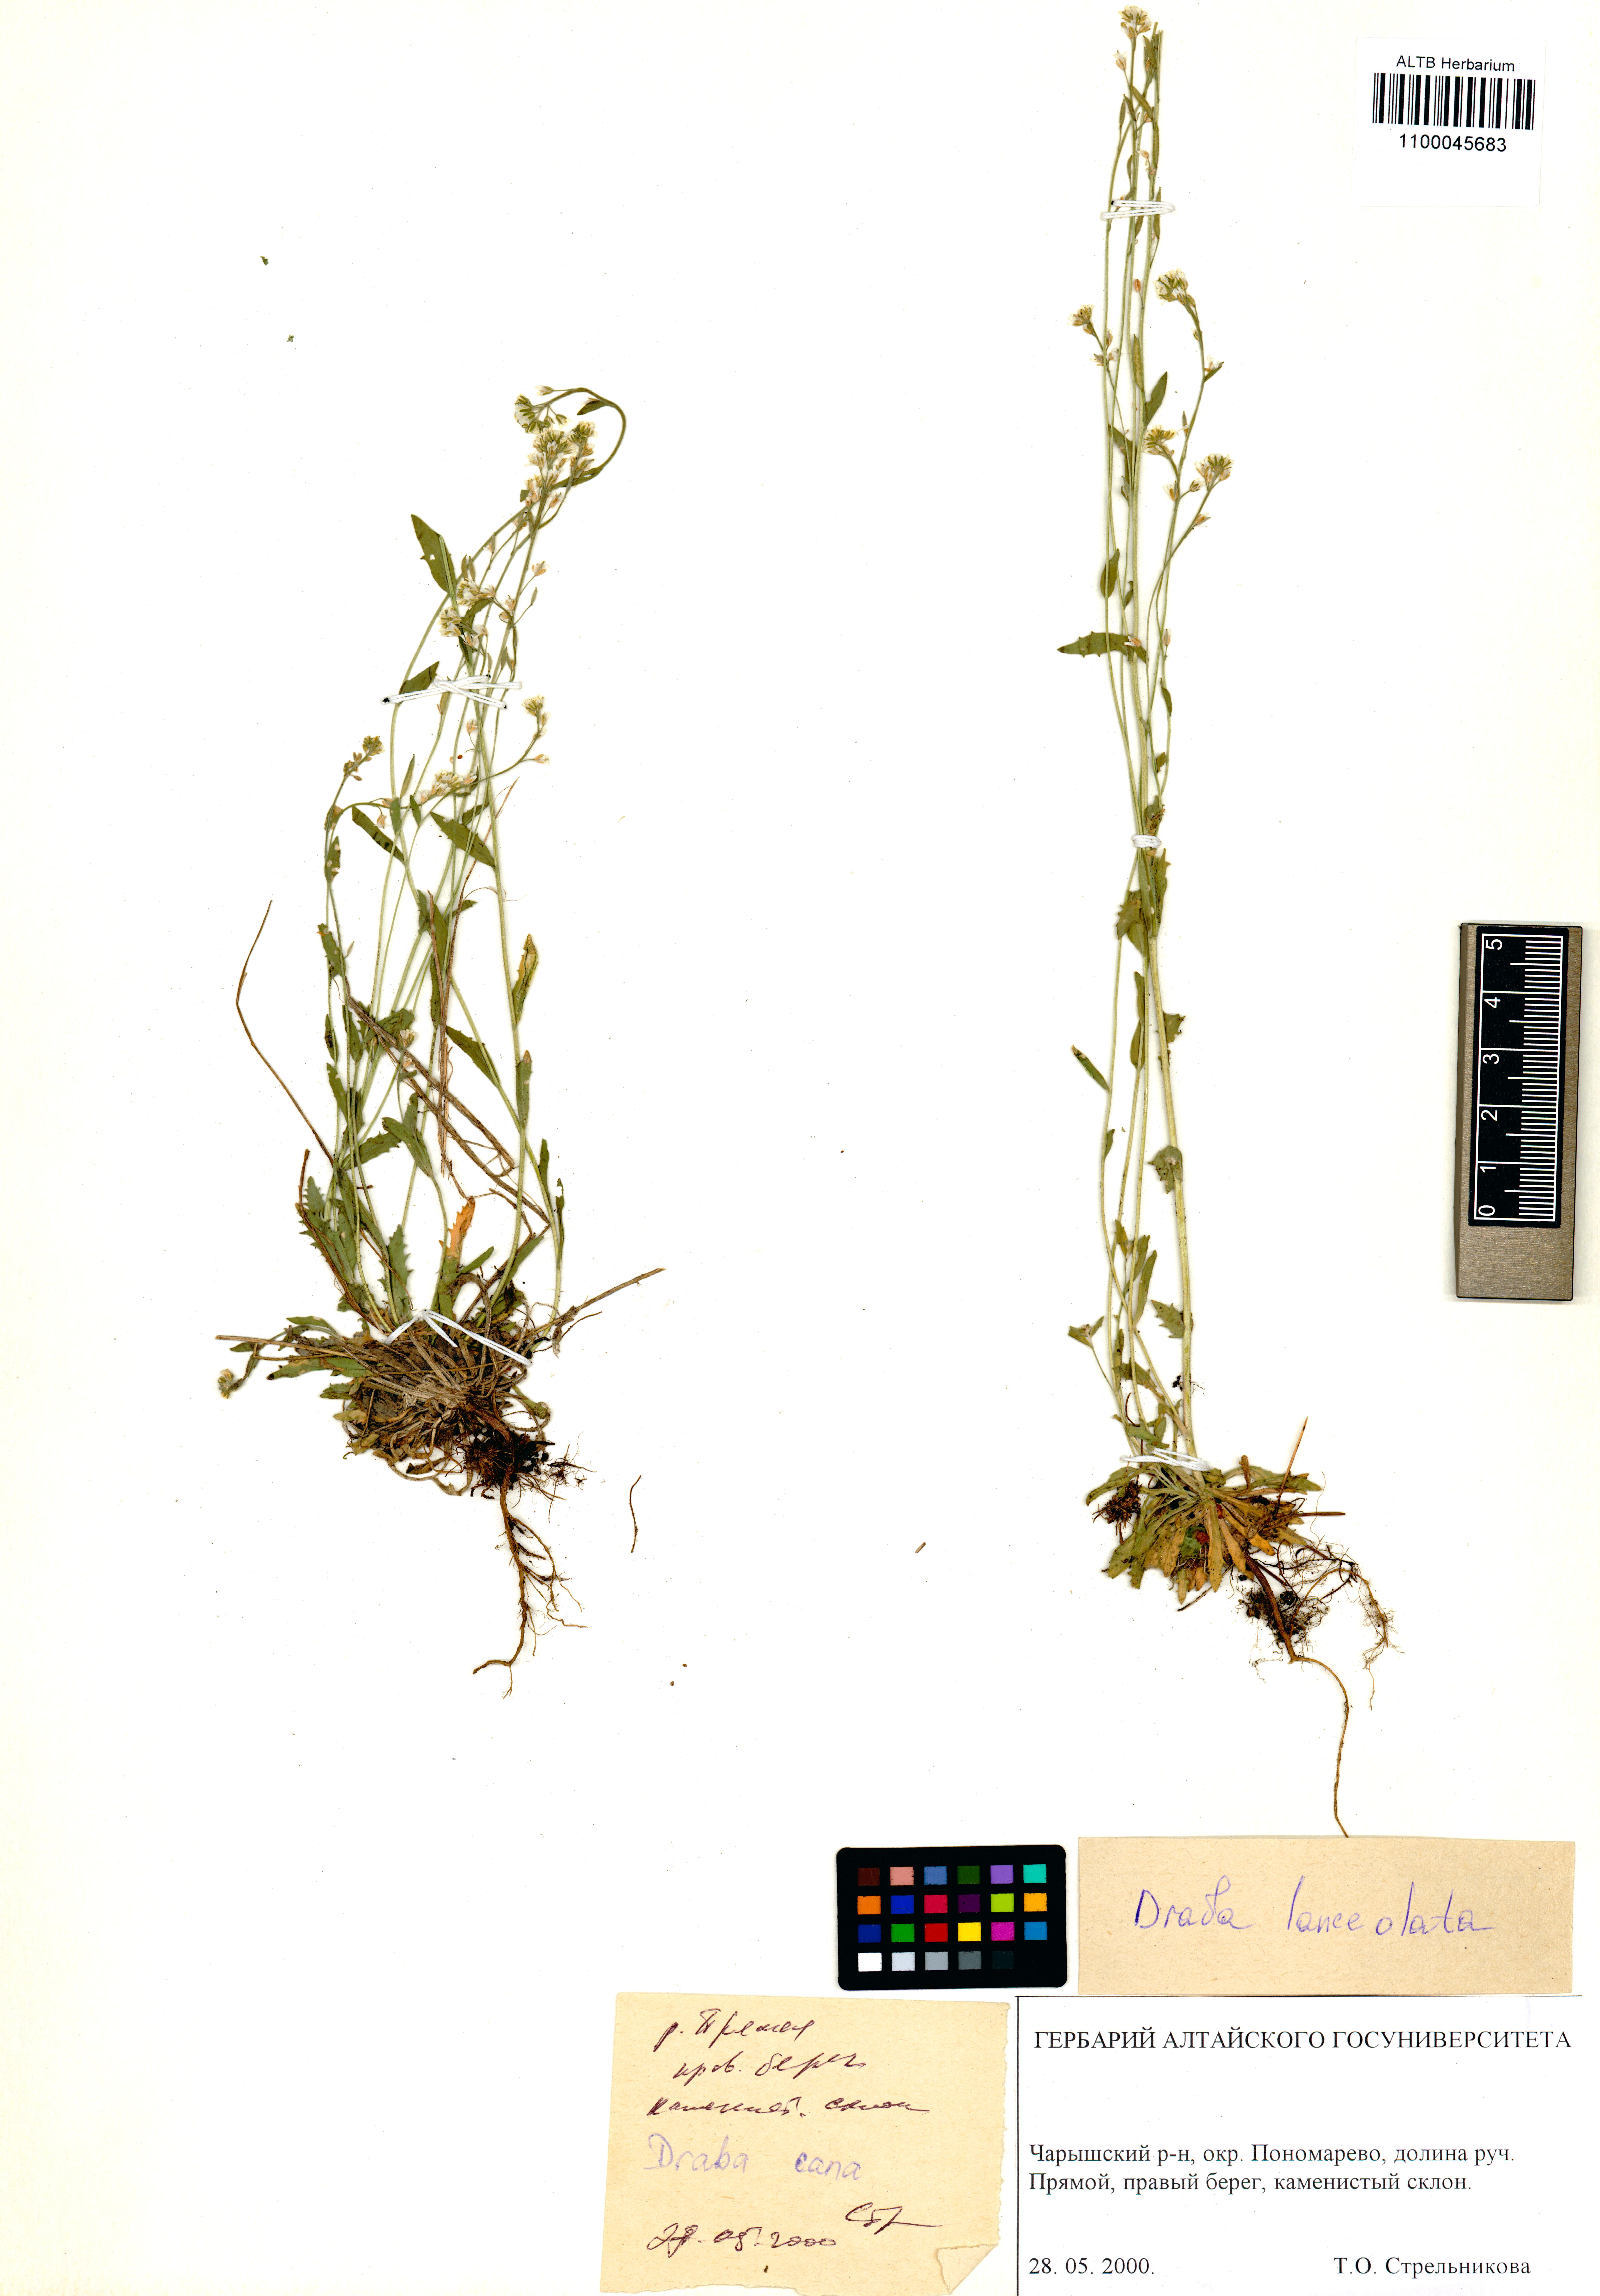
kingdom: Plantae
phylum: Tracheophyta
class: Magnoliopsida
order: Brassicales
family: Brassicaceae
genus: Draba
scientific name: Draba lanceolata
